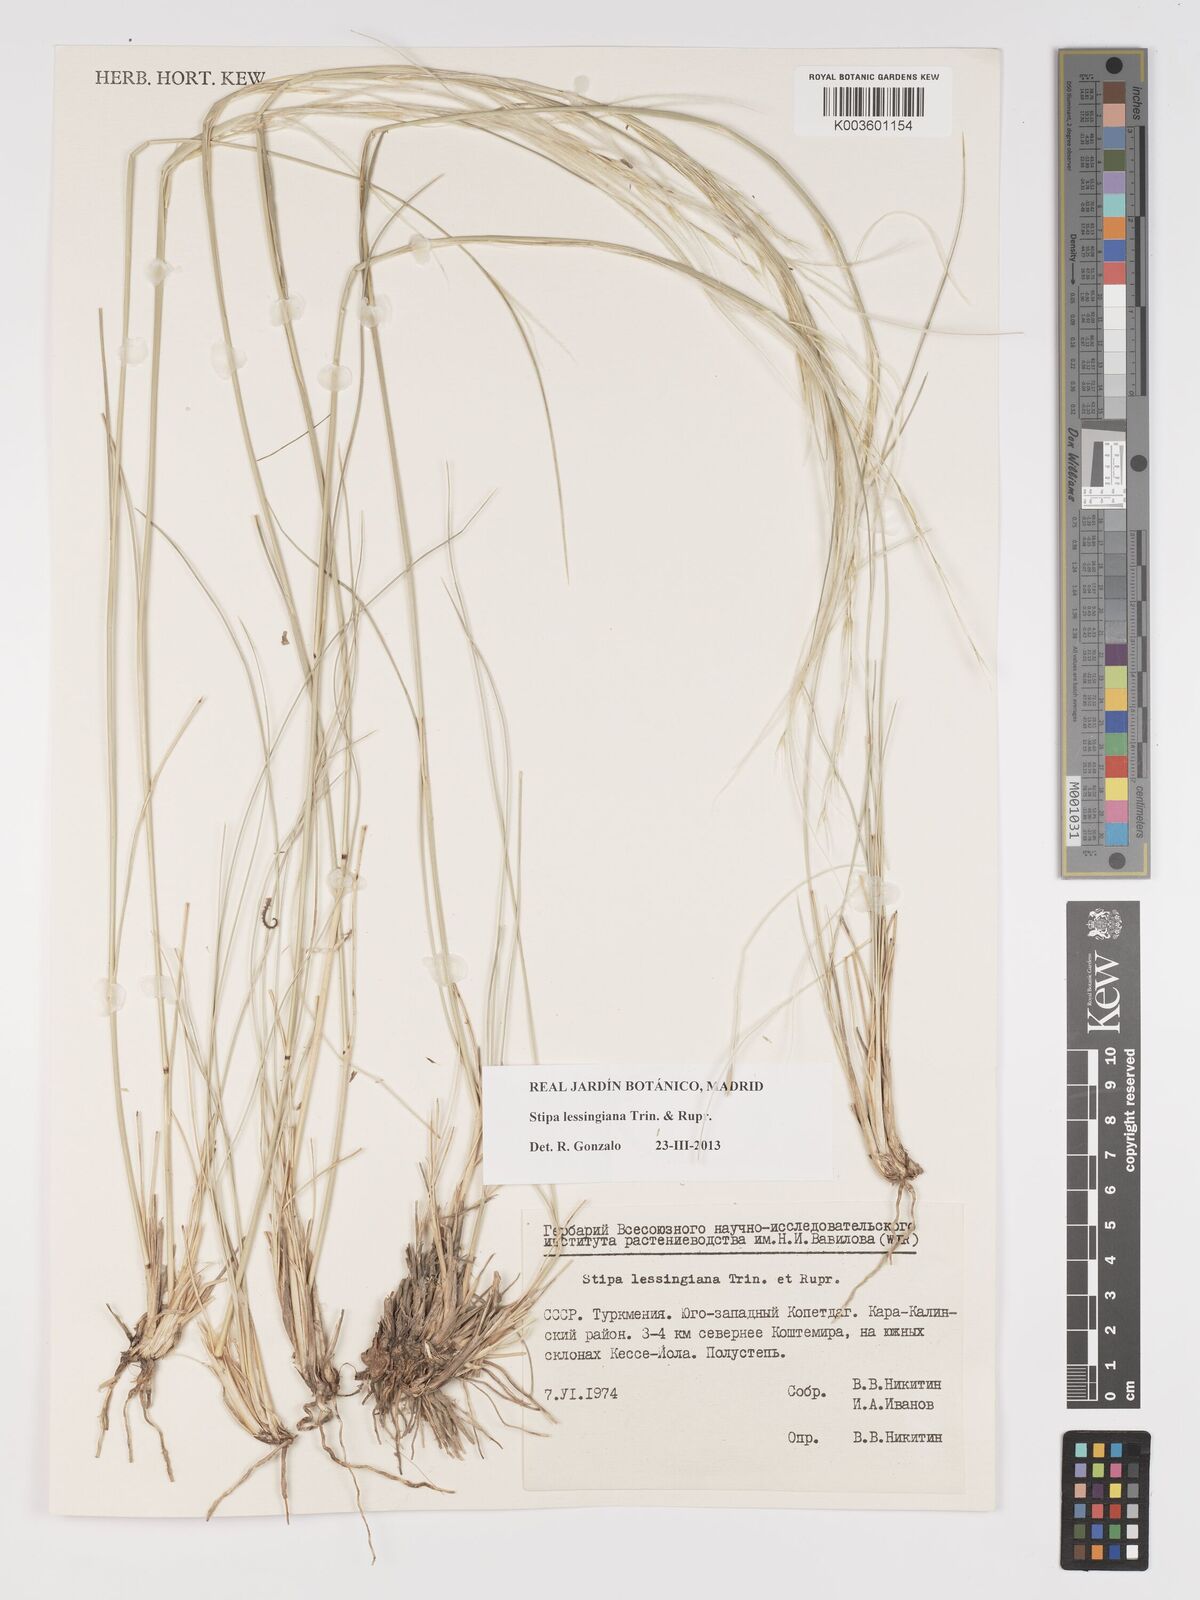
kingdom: Plantae
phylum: Tracheophyta
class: Liliopsida
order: Poales
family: Poaceae
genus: Stipa
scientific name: Stipa lessingiana
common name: Needle grass
